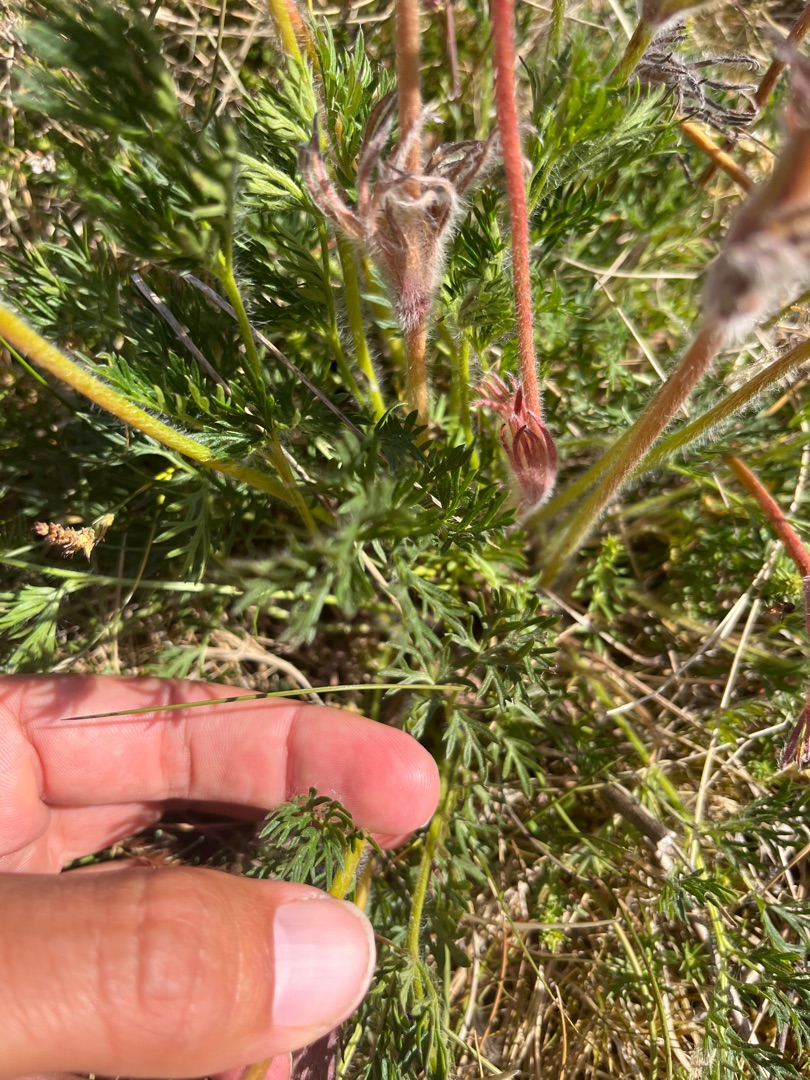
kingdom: Plantae
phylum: Tracheophyta
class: Magnoliopsida
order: Ranunculales
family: Ranunculaceae
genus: Pulsatilla
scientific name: Pulsatilla
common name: Kobjældeslægten
